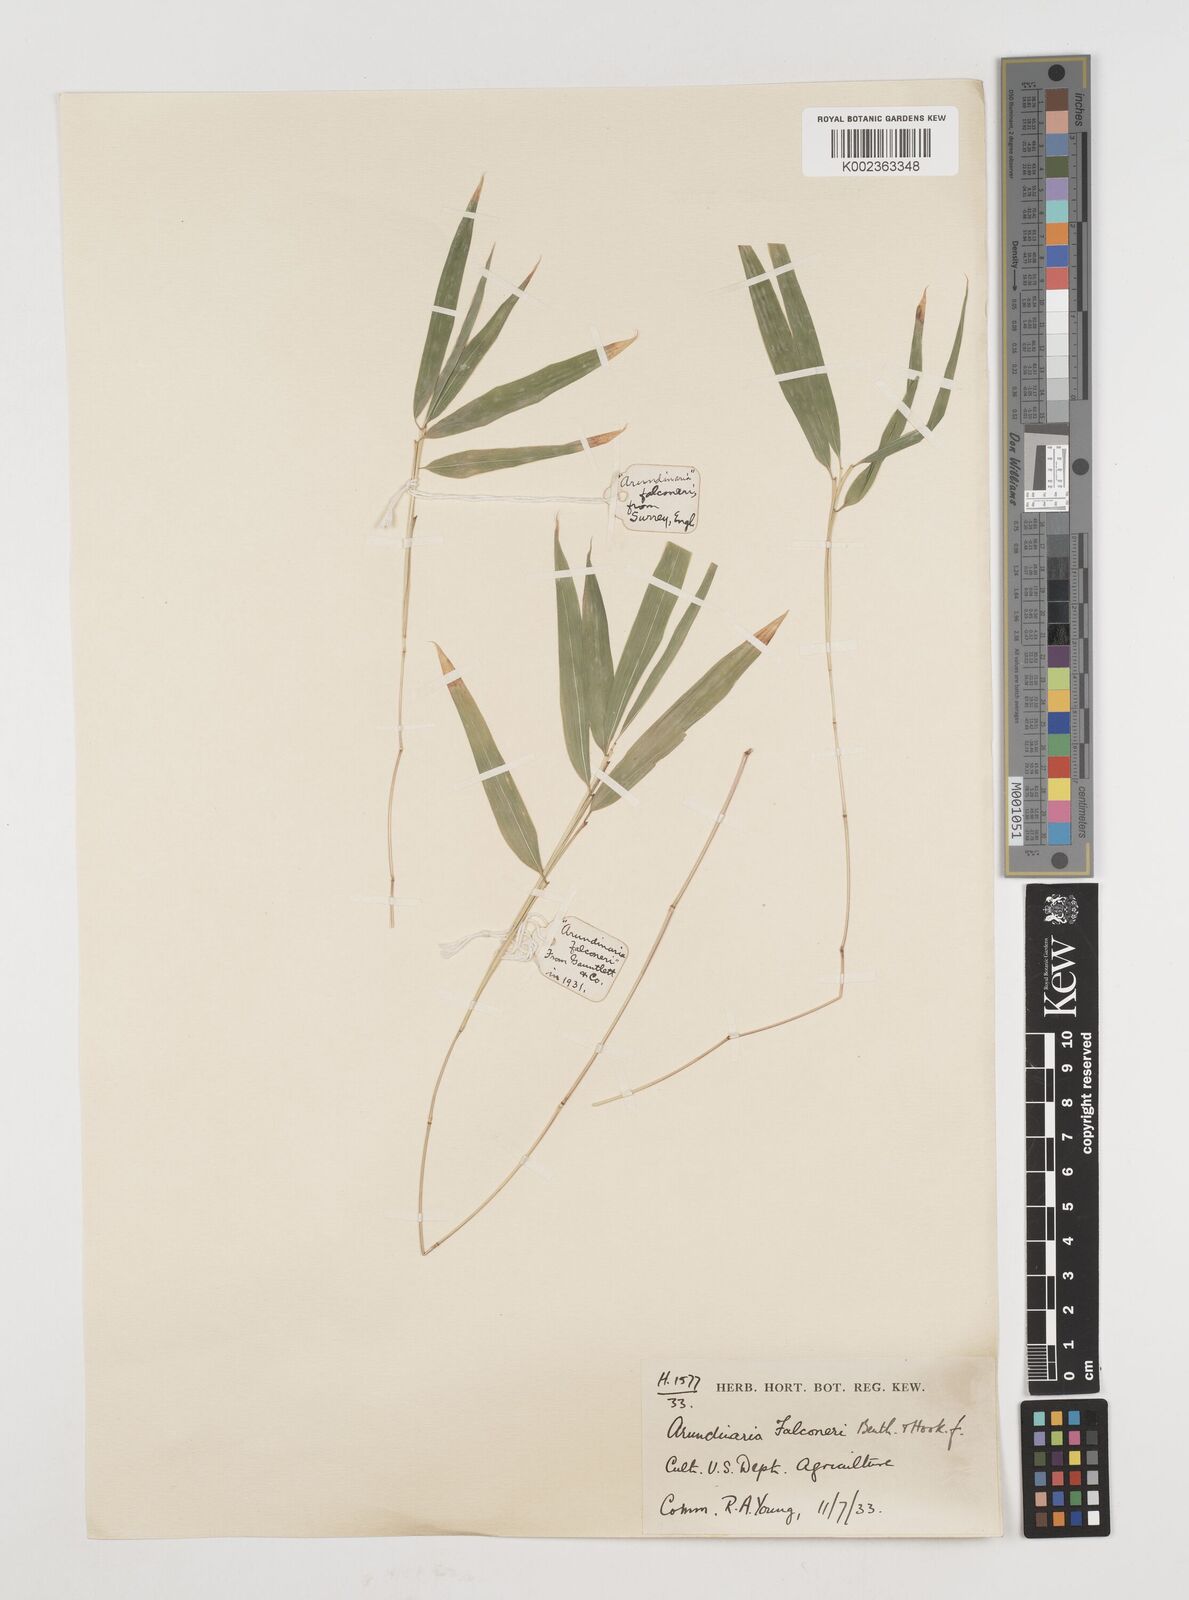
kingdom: Plantae
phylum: Tracheophyta
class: Liliopsida
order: Poales
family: Poaceae
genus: Himalayacalamus
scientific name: Himalayacalamus falconeri
